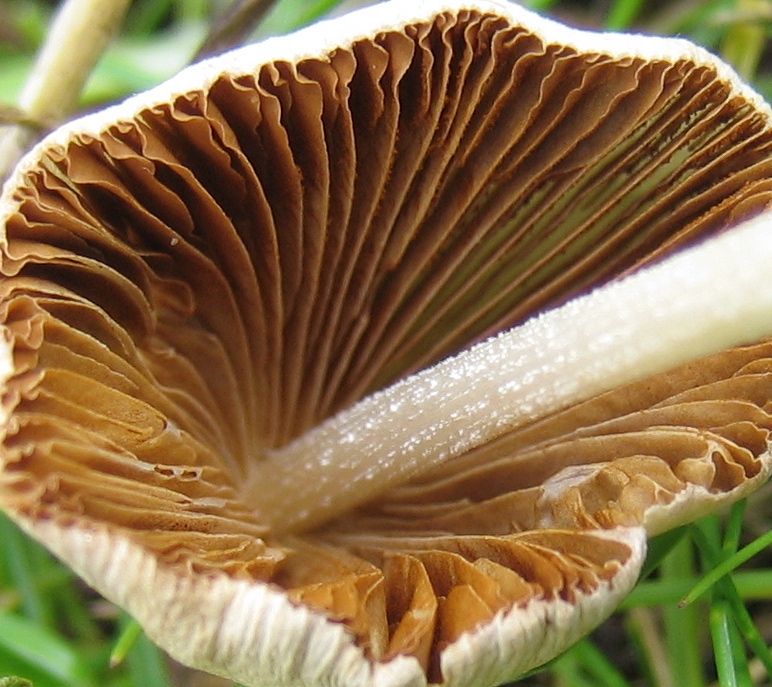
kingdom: Fungi
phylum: Basidiomycota
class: Agaricomycetes
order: Agaricales
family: Bolbitiaceae
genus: Conocybe
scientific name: Conocybe
